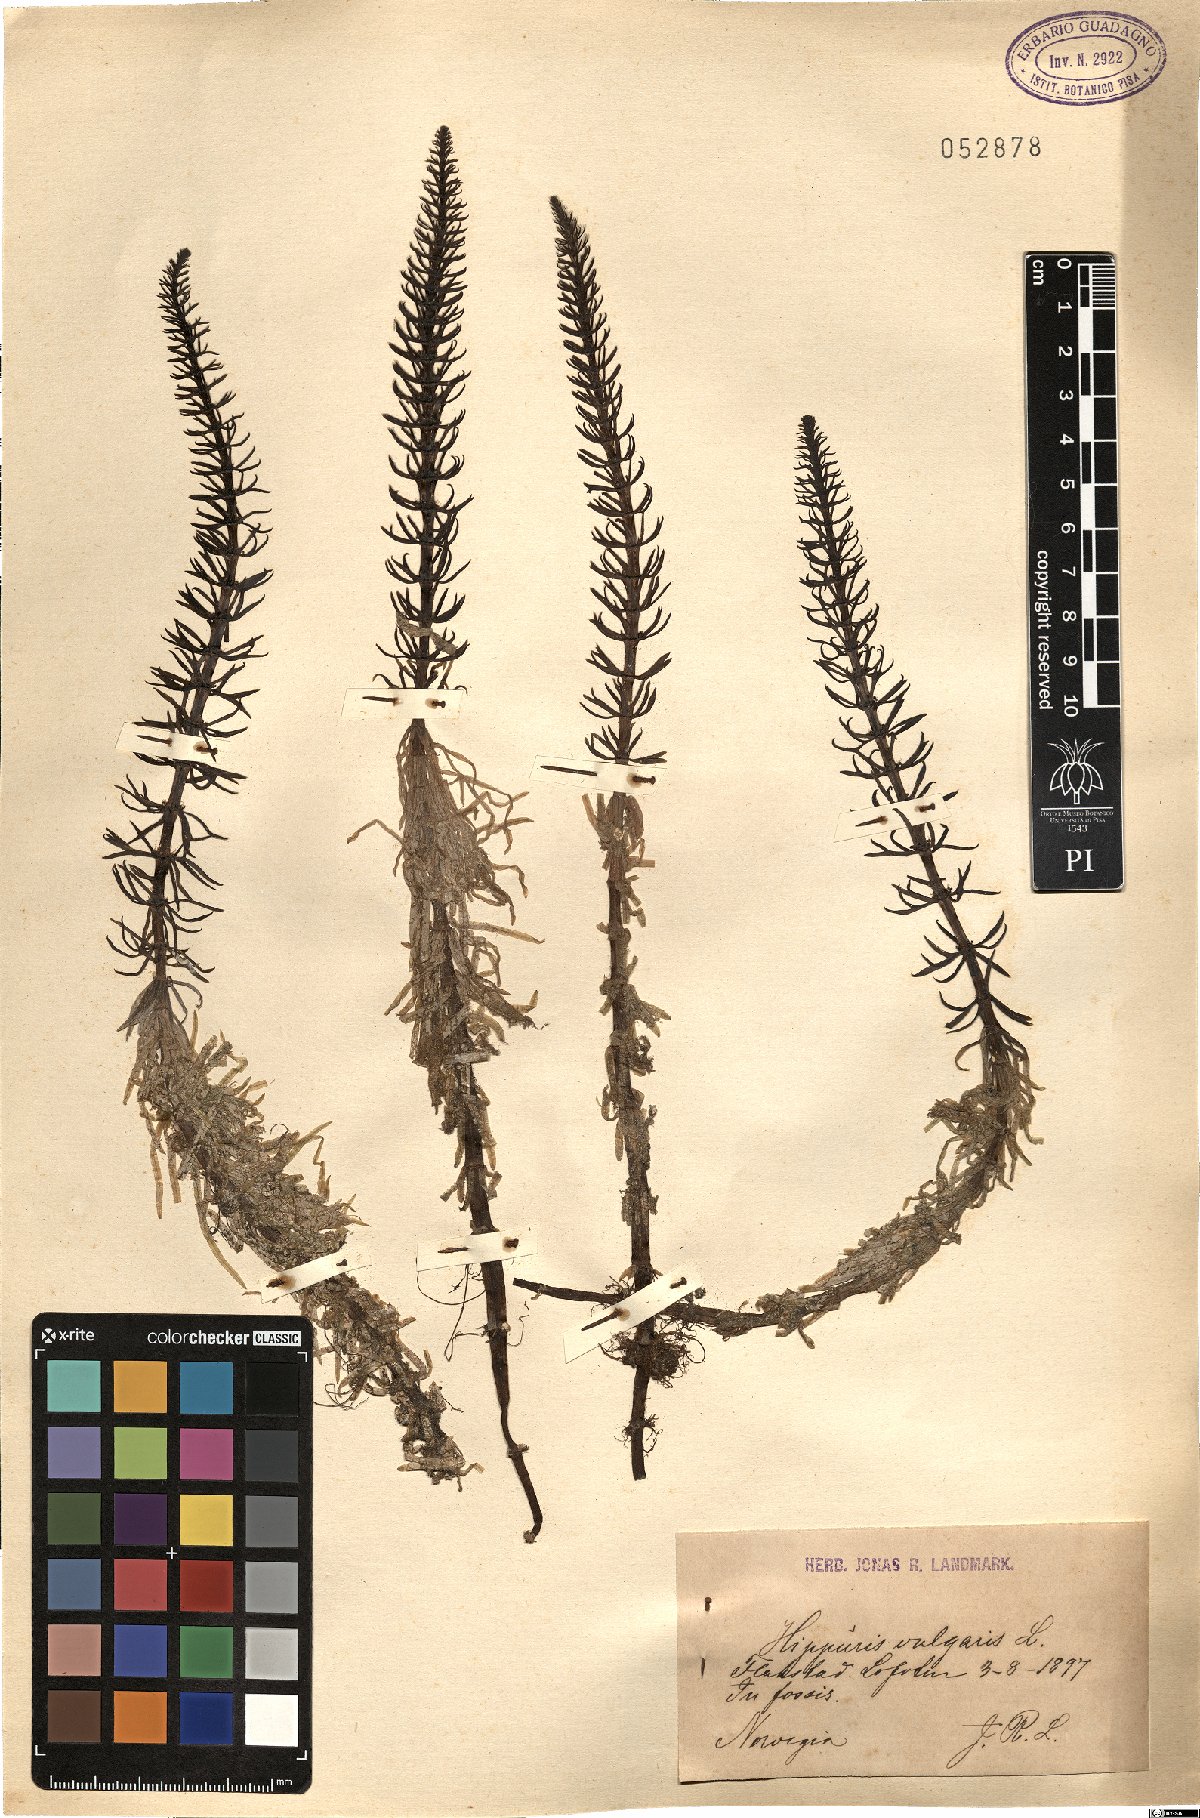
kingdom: Plantae
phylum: Tracheophyta
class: Magnoliopsida
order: Lamiales
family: Plantaginaceae
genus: Hippuris
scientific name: Hippuris vulgaris
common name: Mare's-tail
